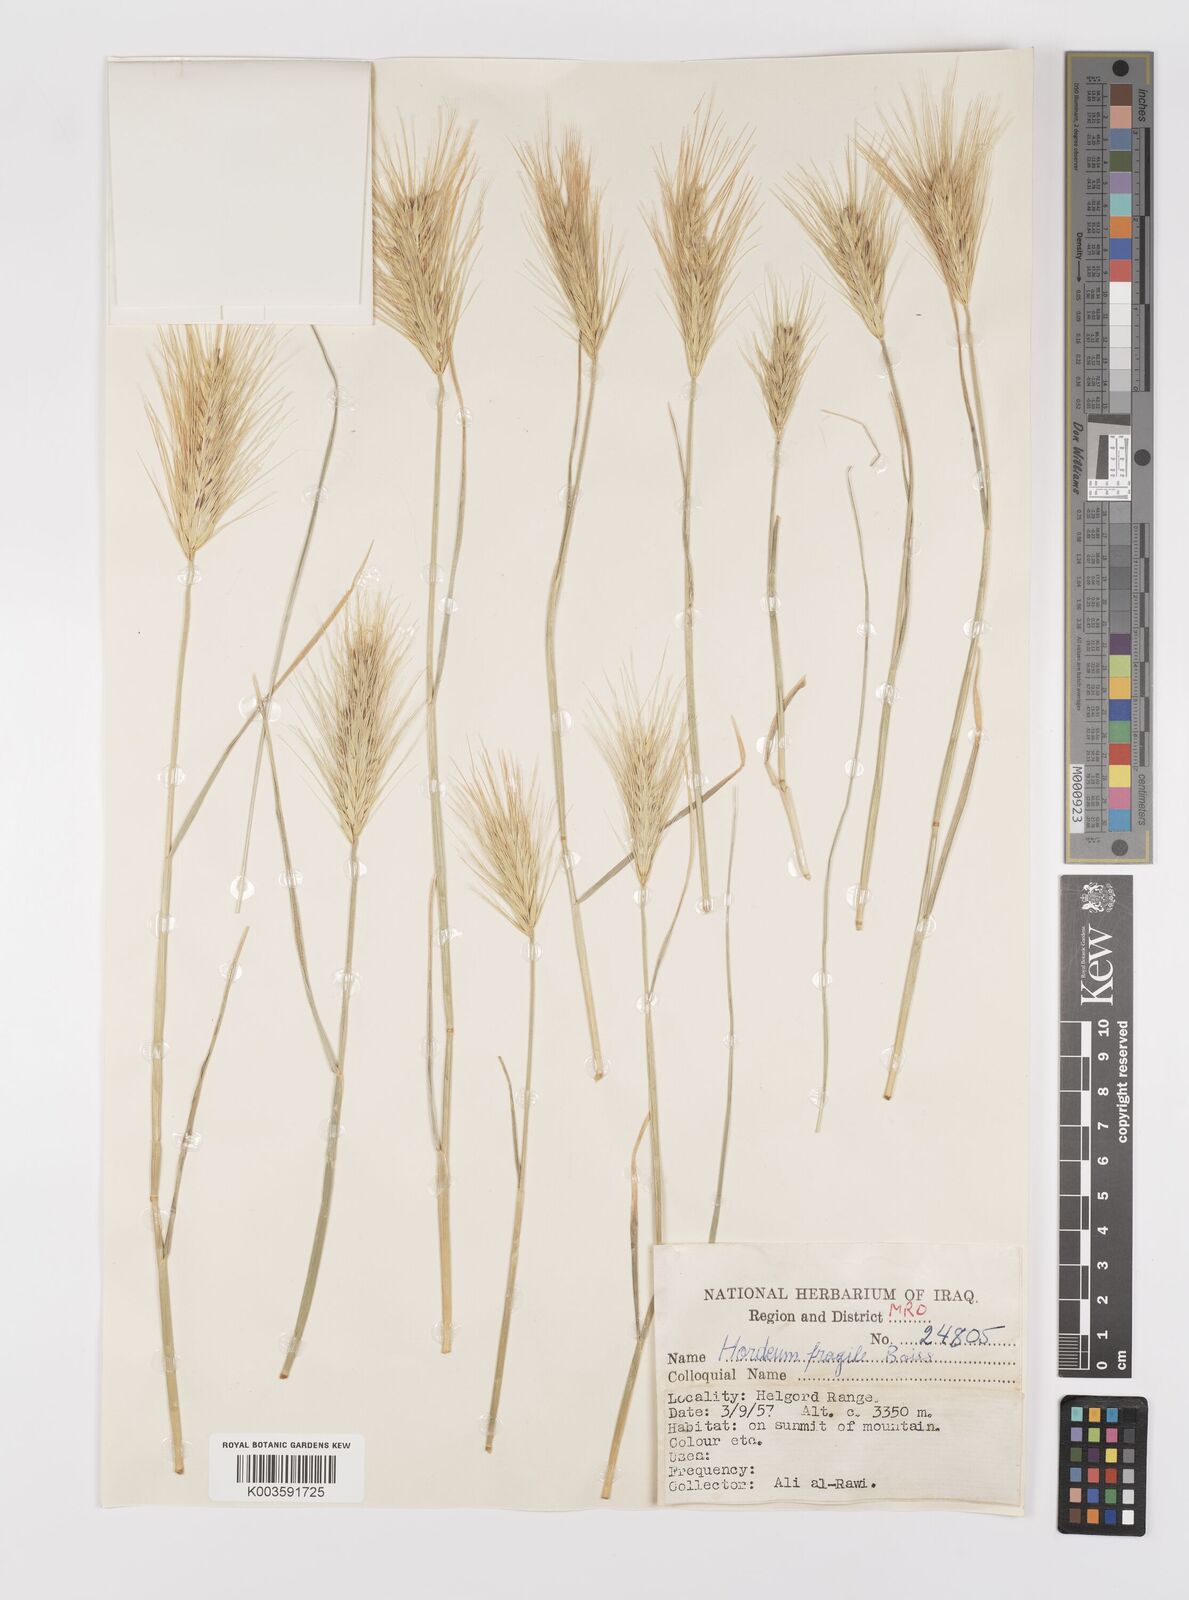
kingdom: Plantae
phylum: Tracheophyta
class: Liliopsida
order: Poales
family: Poaceae
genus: Psathyrostachys
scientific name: Psathyrostachys fragilis
